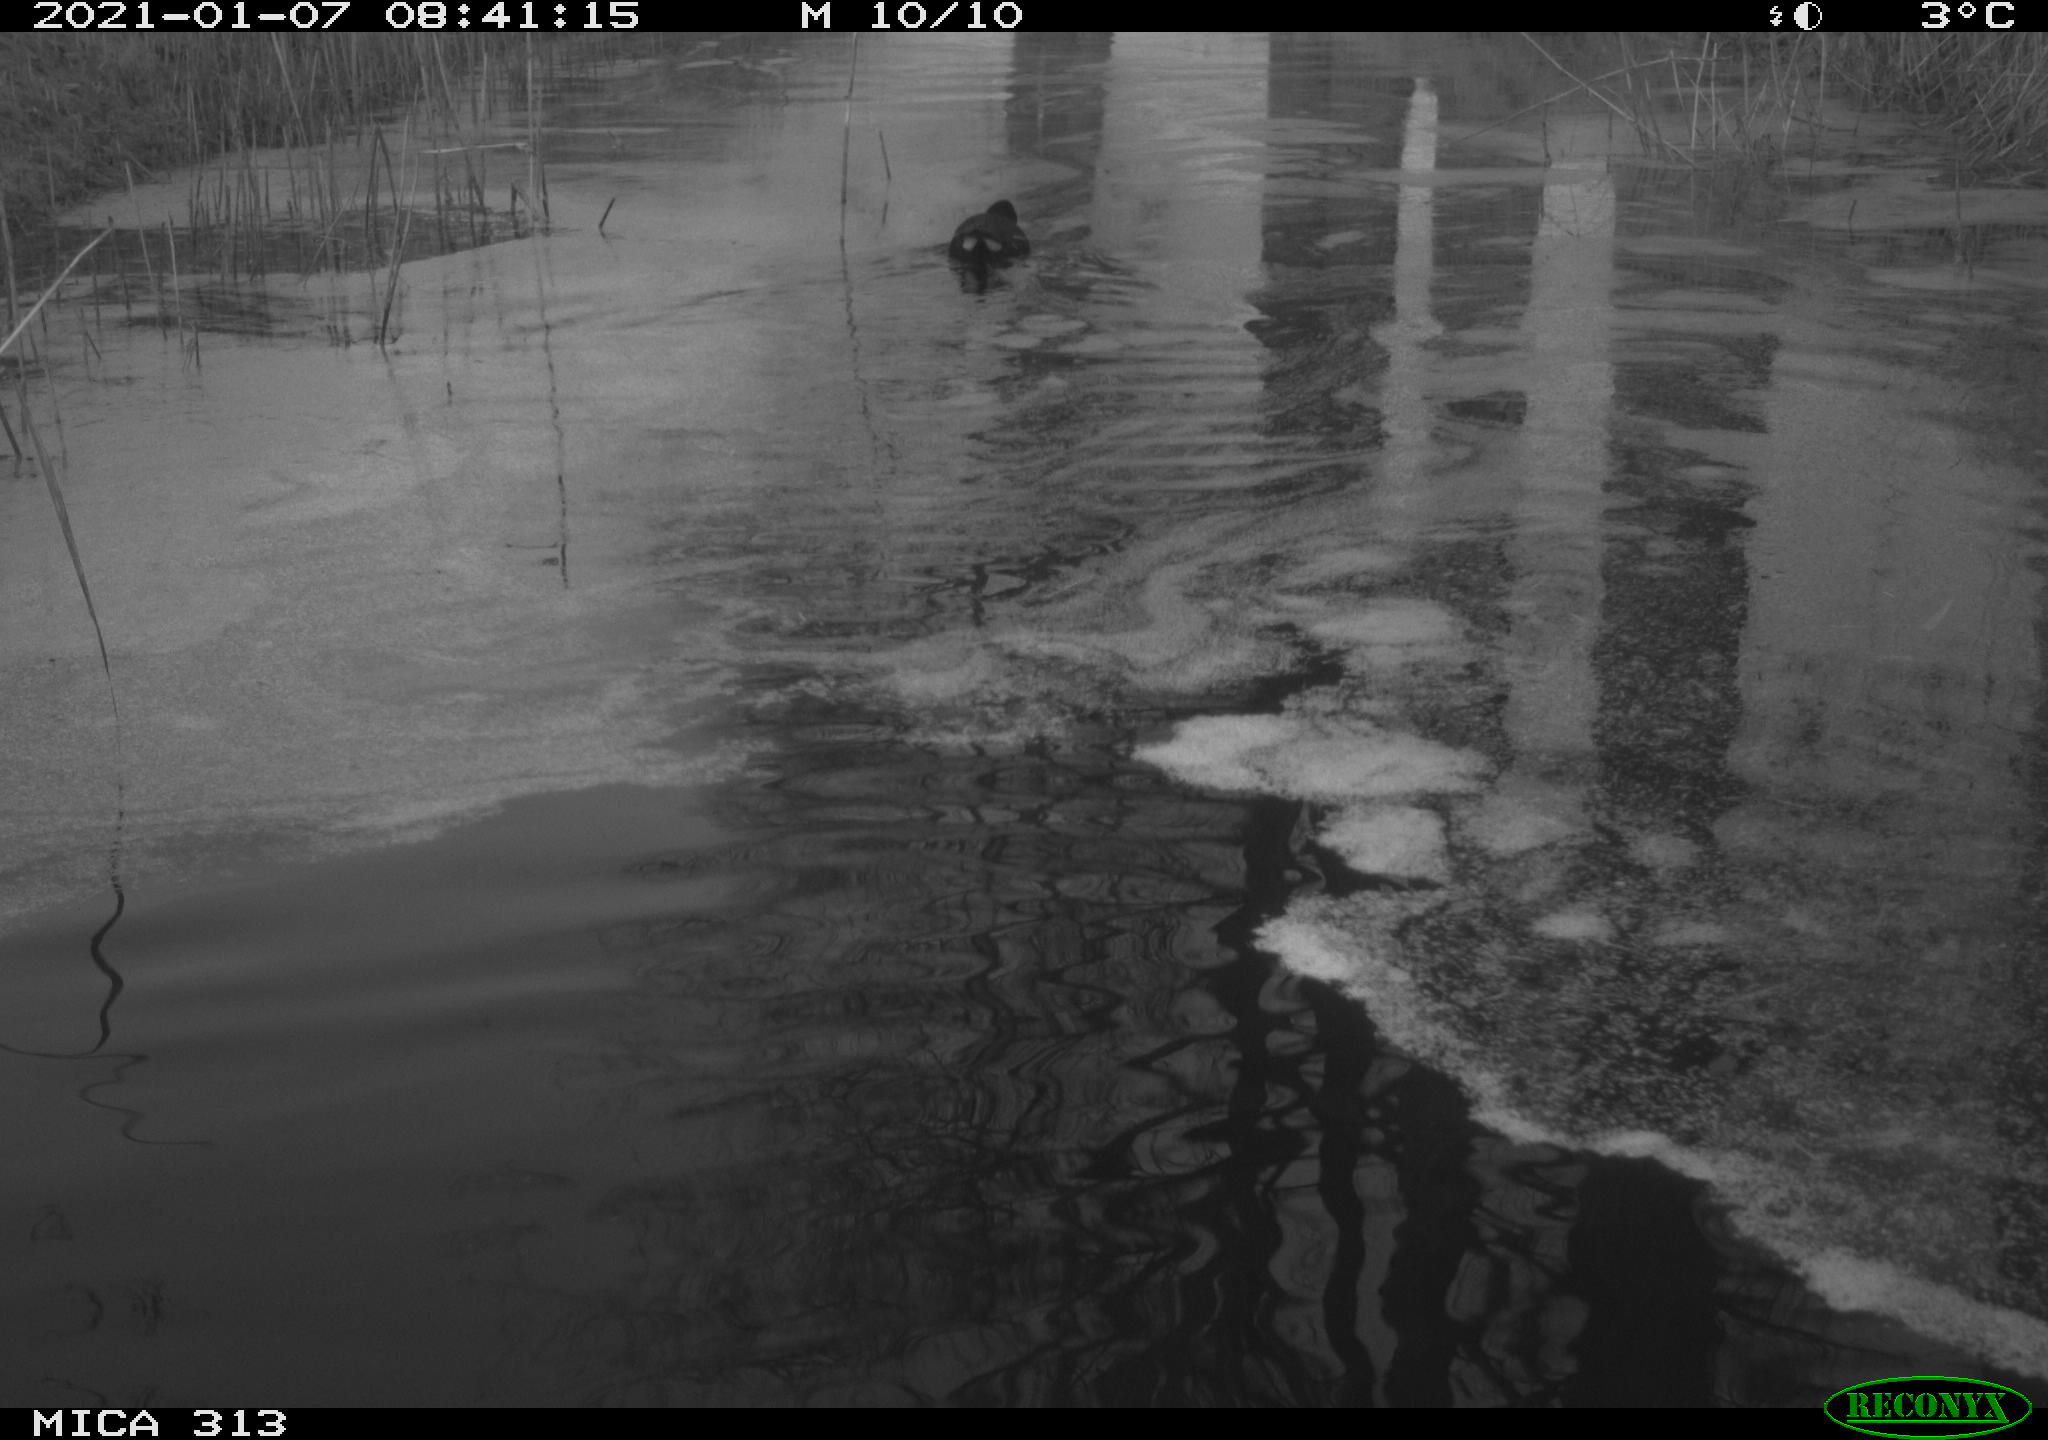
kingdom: Animalia
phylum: Chordata
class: Aves
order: Gruiformes
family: Rallidae
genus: Gallinula
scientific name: Gallinula chloropus
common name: Common moorhen
